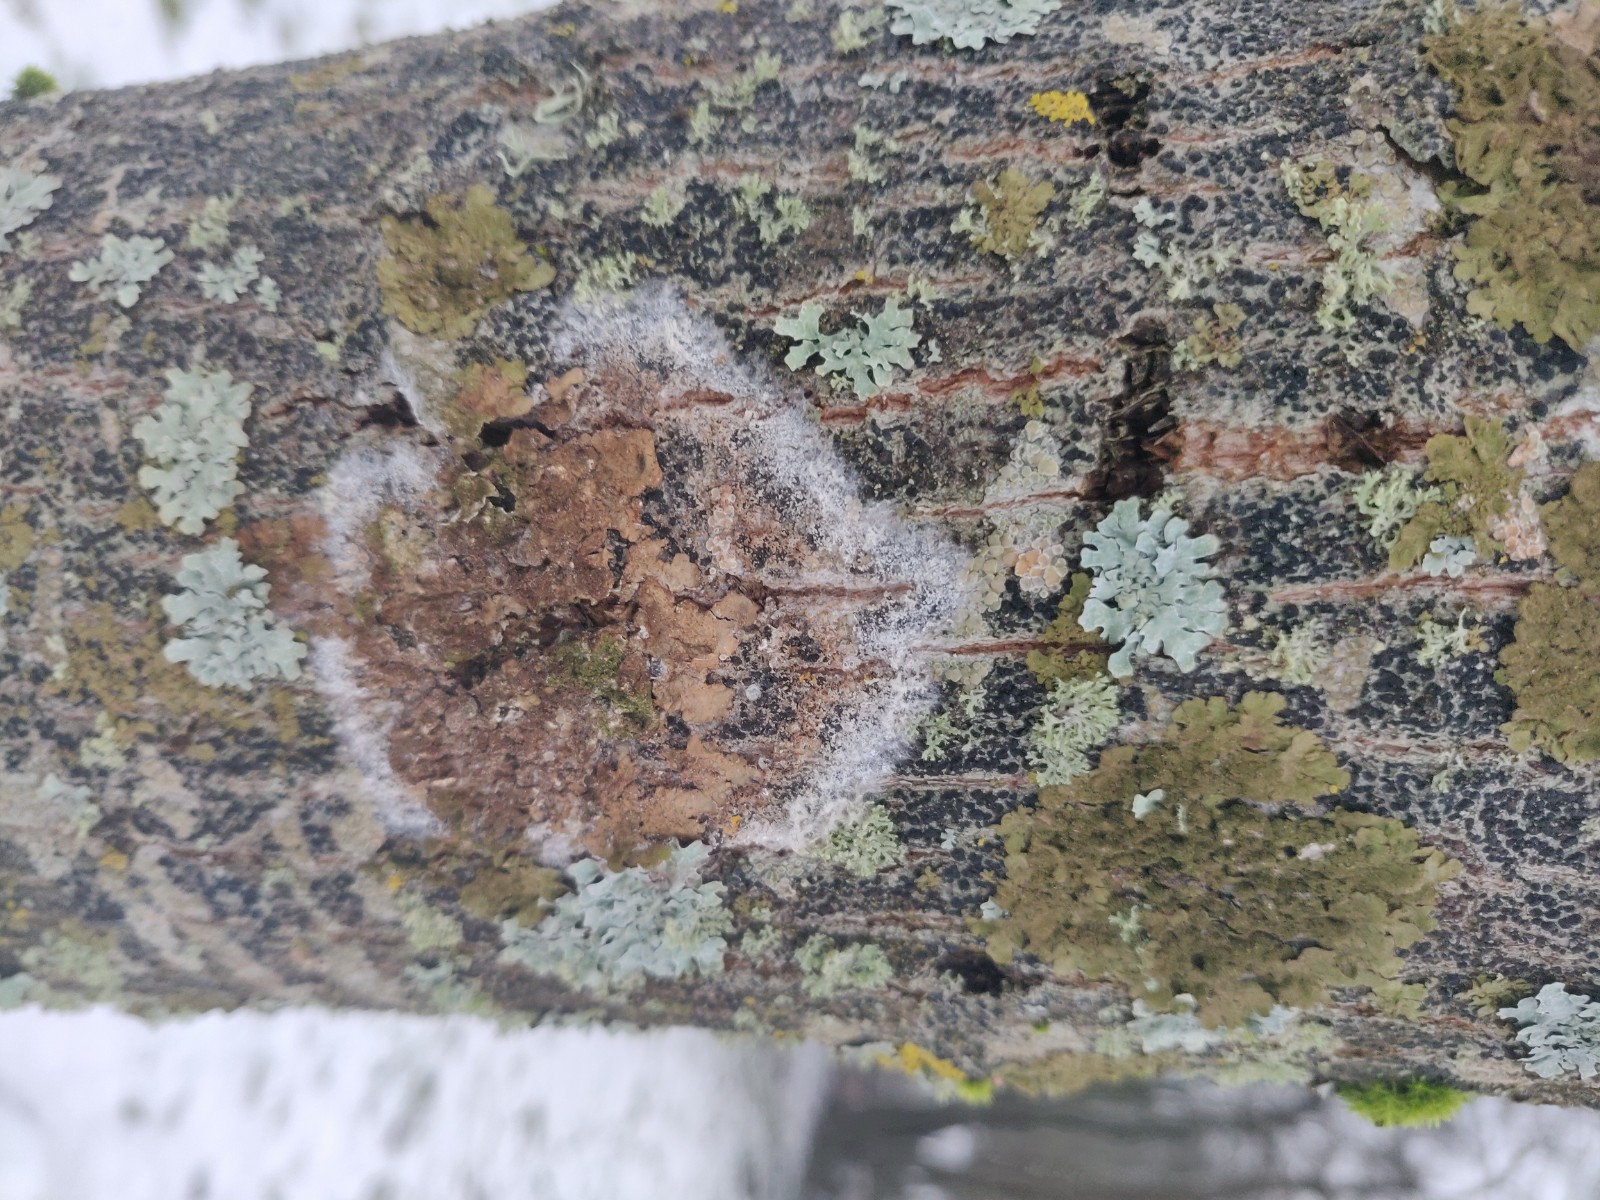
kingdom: Fungi
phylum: Basidiomycota
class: Agaricomycetes
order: Atheliales
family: Atheliaceae
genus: Athelia
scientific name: Athelia arachnoidea
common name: randet barkhinde
